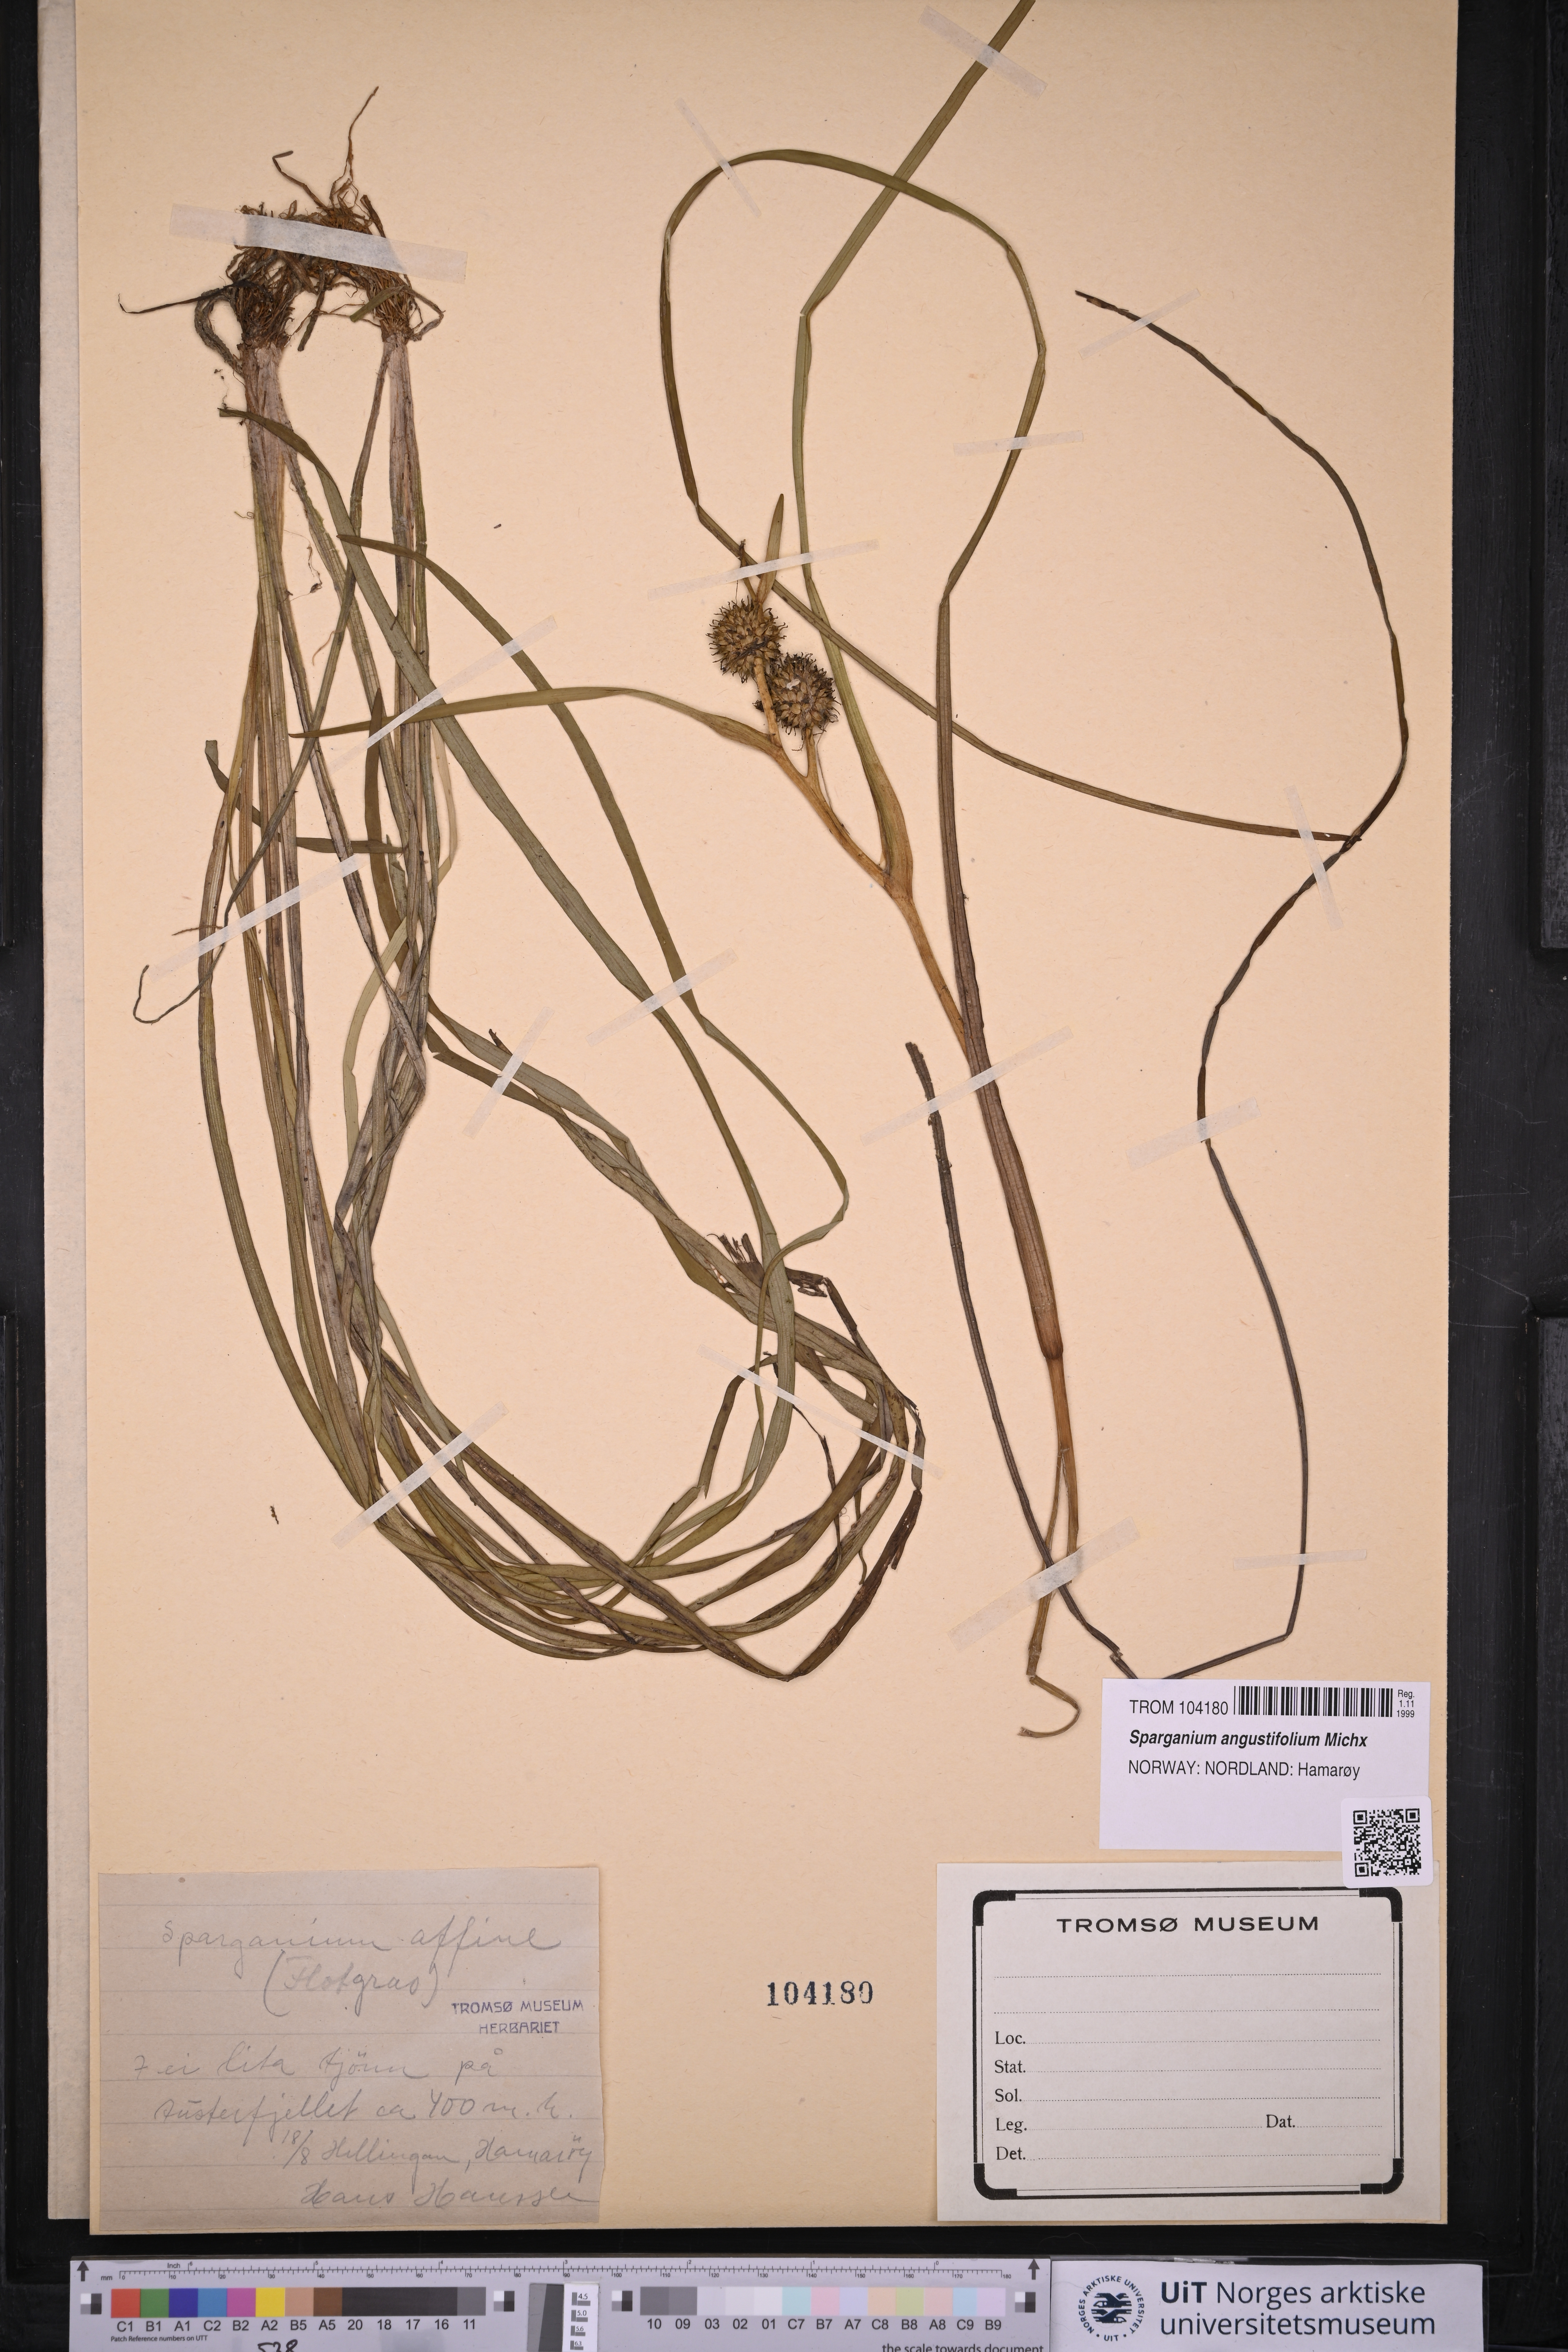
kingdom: Plantae
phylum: Tracheophyta
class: Liliopsida
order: Poales
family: Typhaceae
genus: Sparganium
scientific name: Sparganium angustifolium
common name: Floating bur-reed
